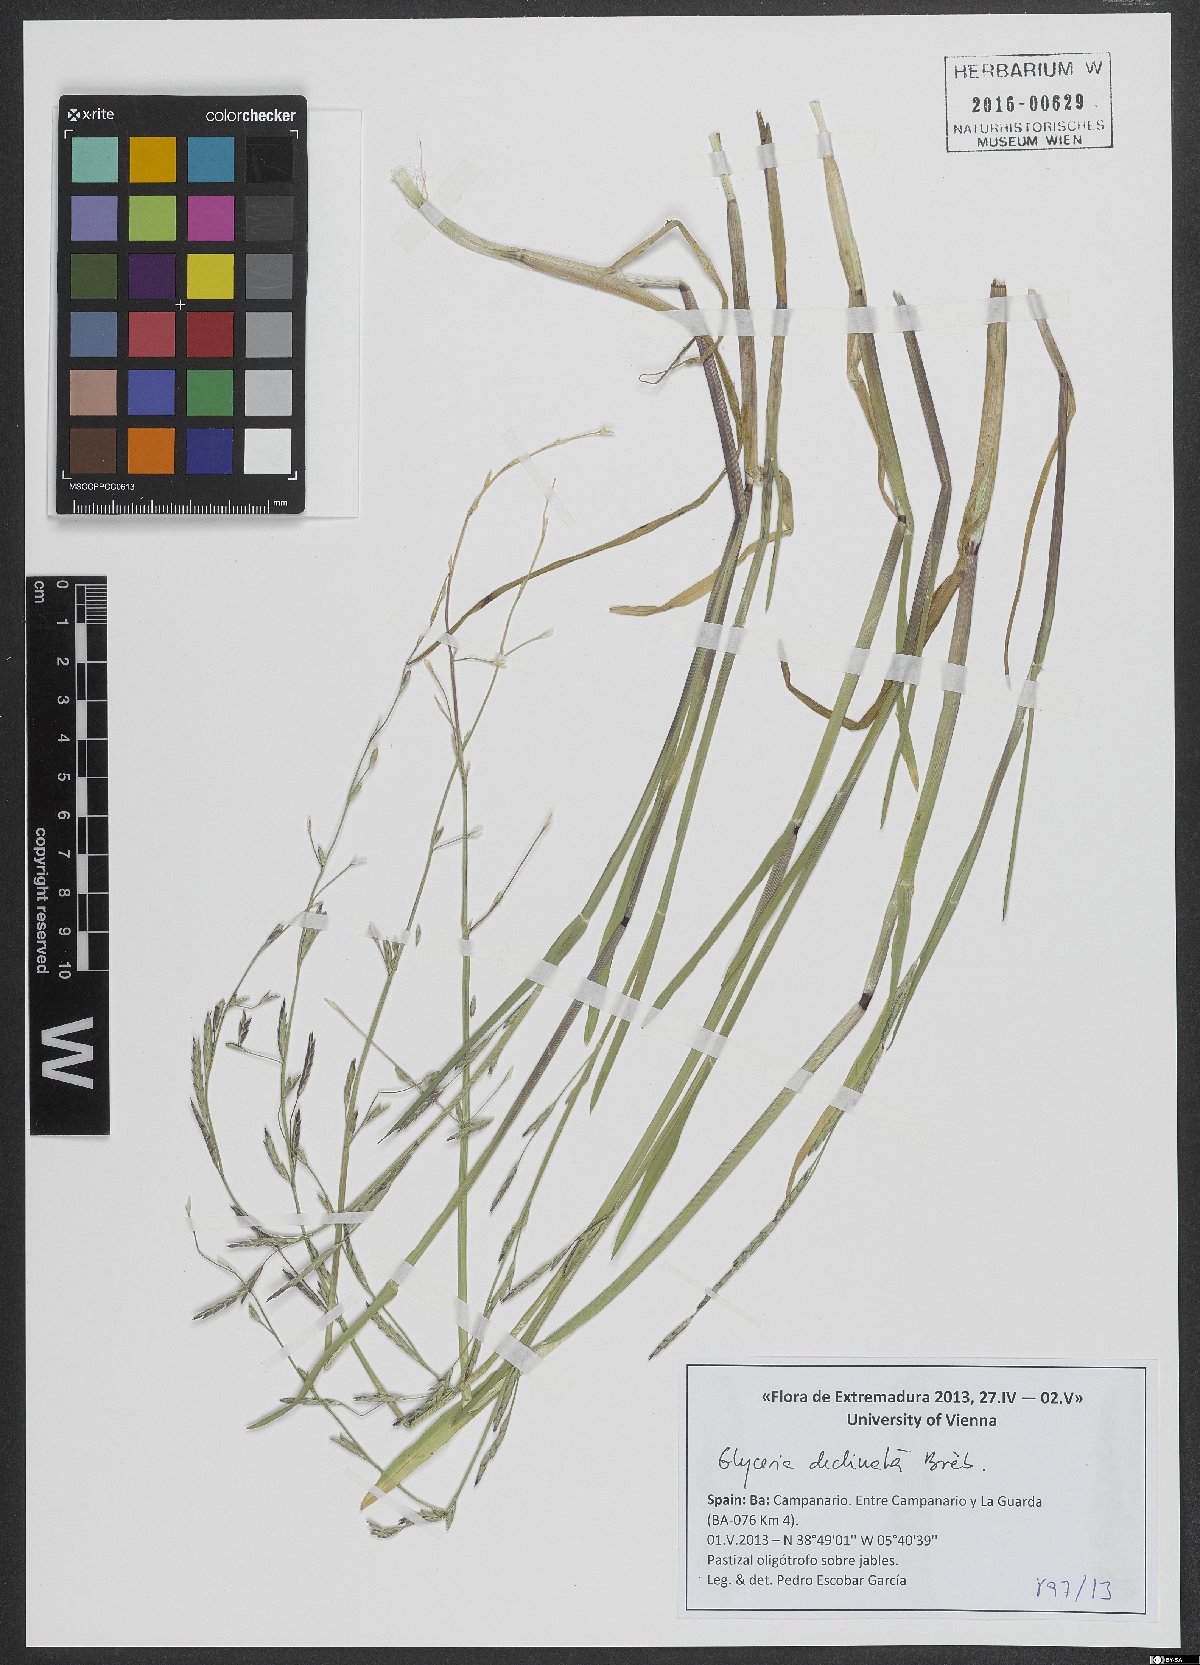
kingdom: Plantae
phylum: Tracheophyta
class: Liliopsida
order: Poales
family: Poaceae
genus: Glyceria
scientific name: Glyceria declinata
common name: Small sweet-grass
